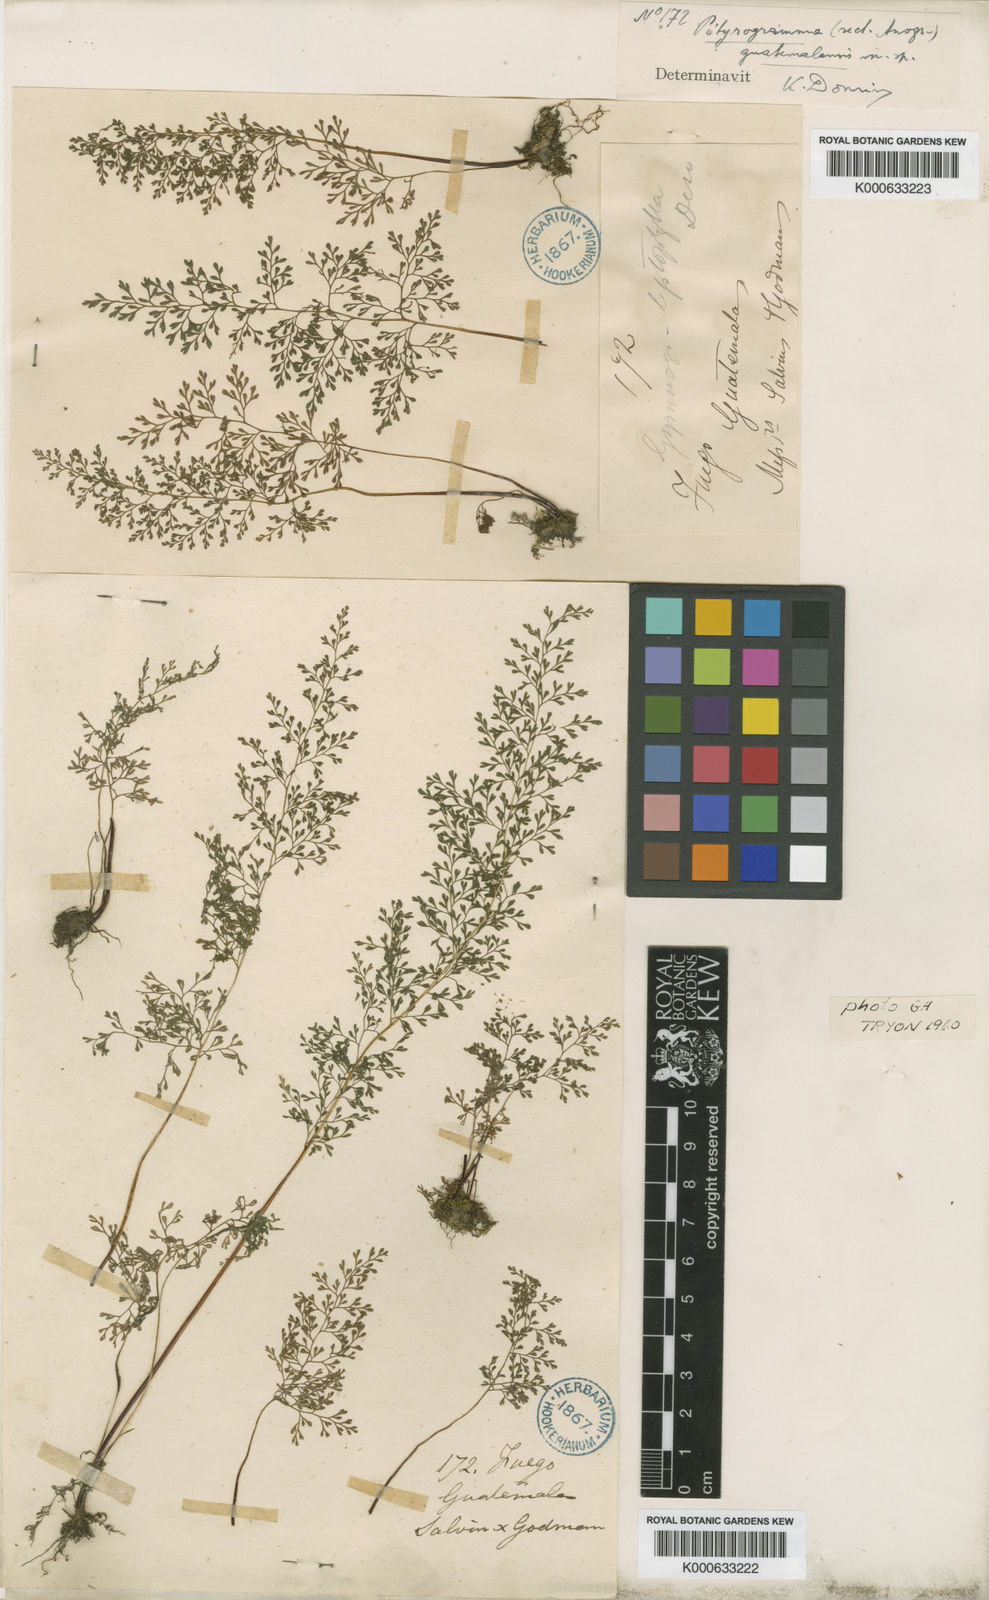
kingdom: Plantae
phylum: Tracheophyta
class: Polypodiopsida
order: Polypodiales
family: Pteridaceae
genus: Anogramma
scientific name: Anogramma leptophylla
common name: Jersey fern
